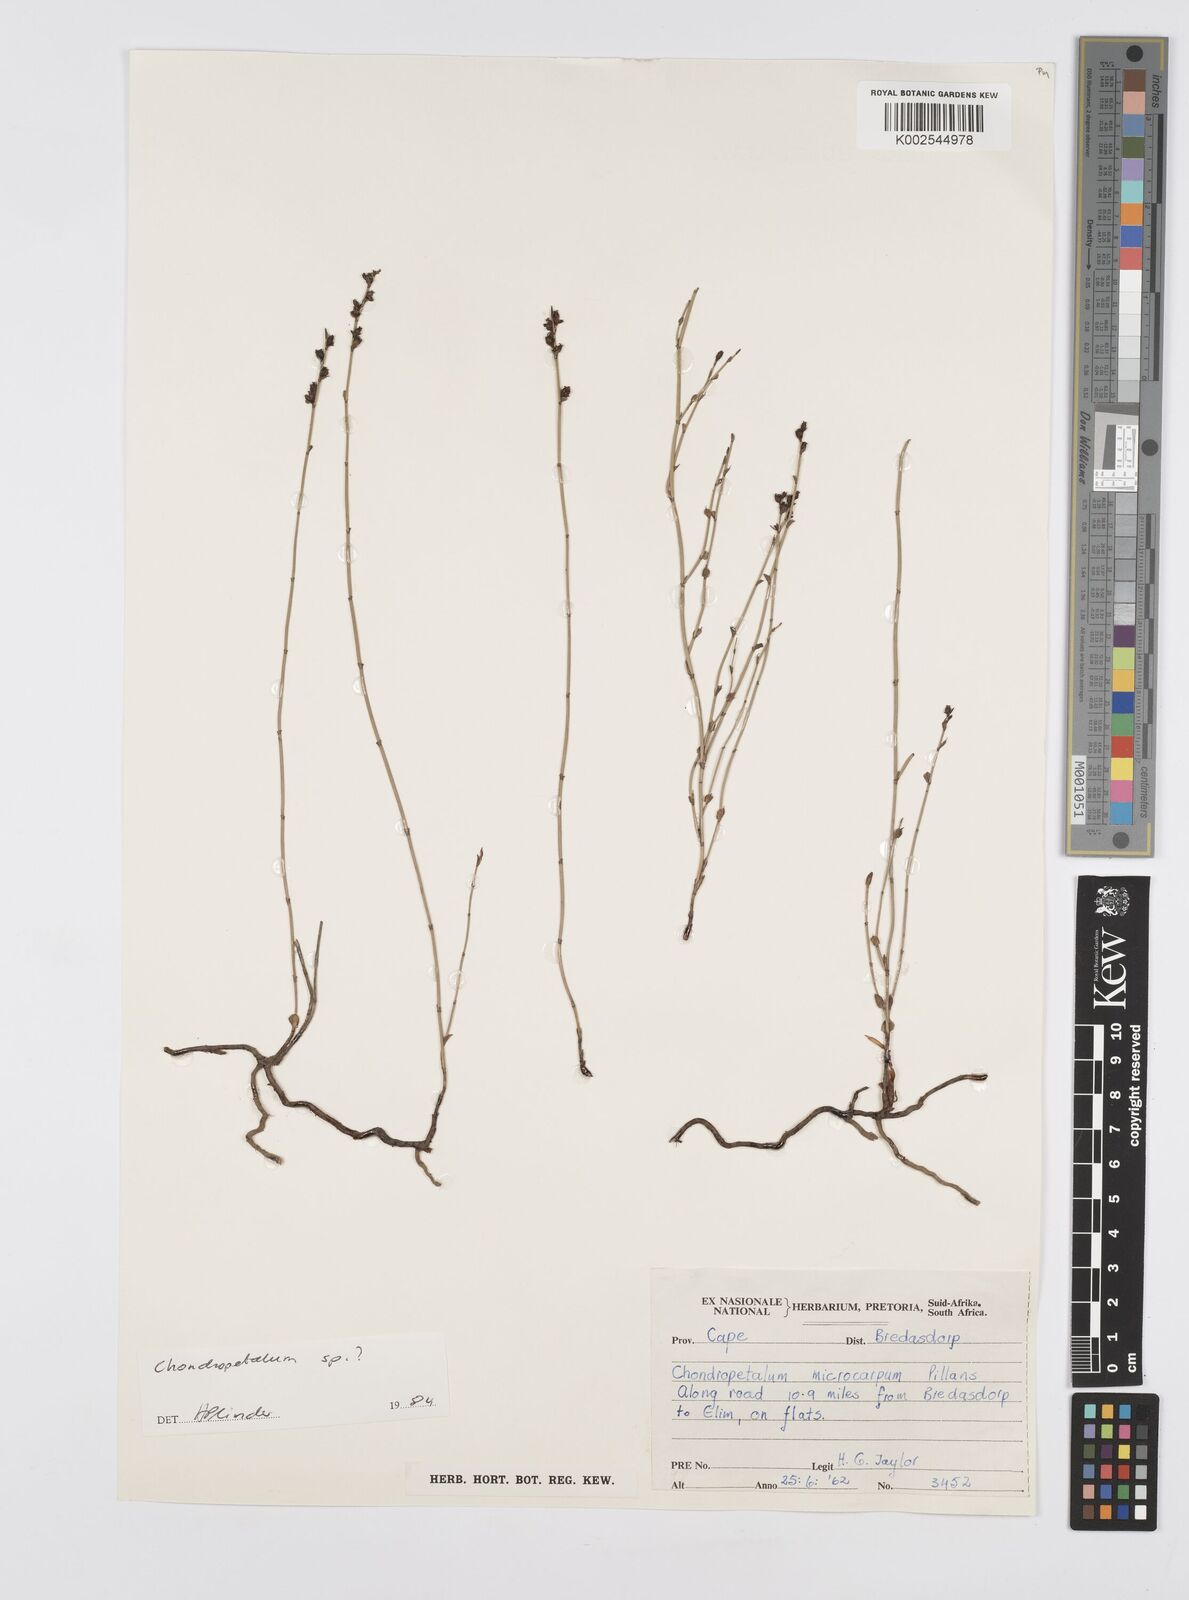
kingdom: Plantae
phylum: Tracheophyta
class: Liliopsida
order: Poales
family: Restionaceae
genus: Elegia
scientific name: Elegia
